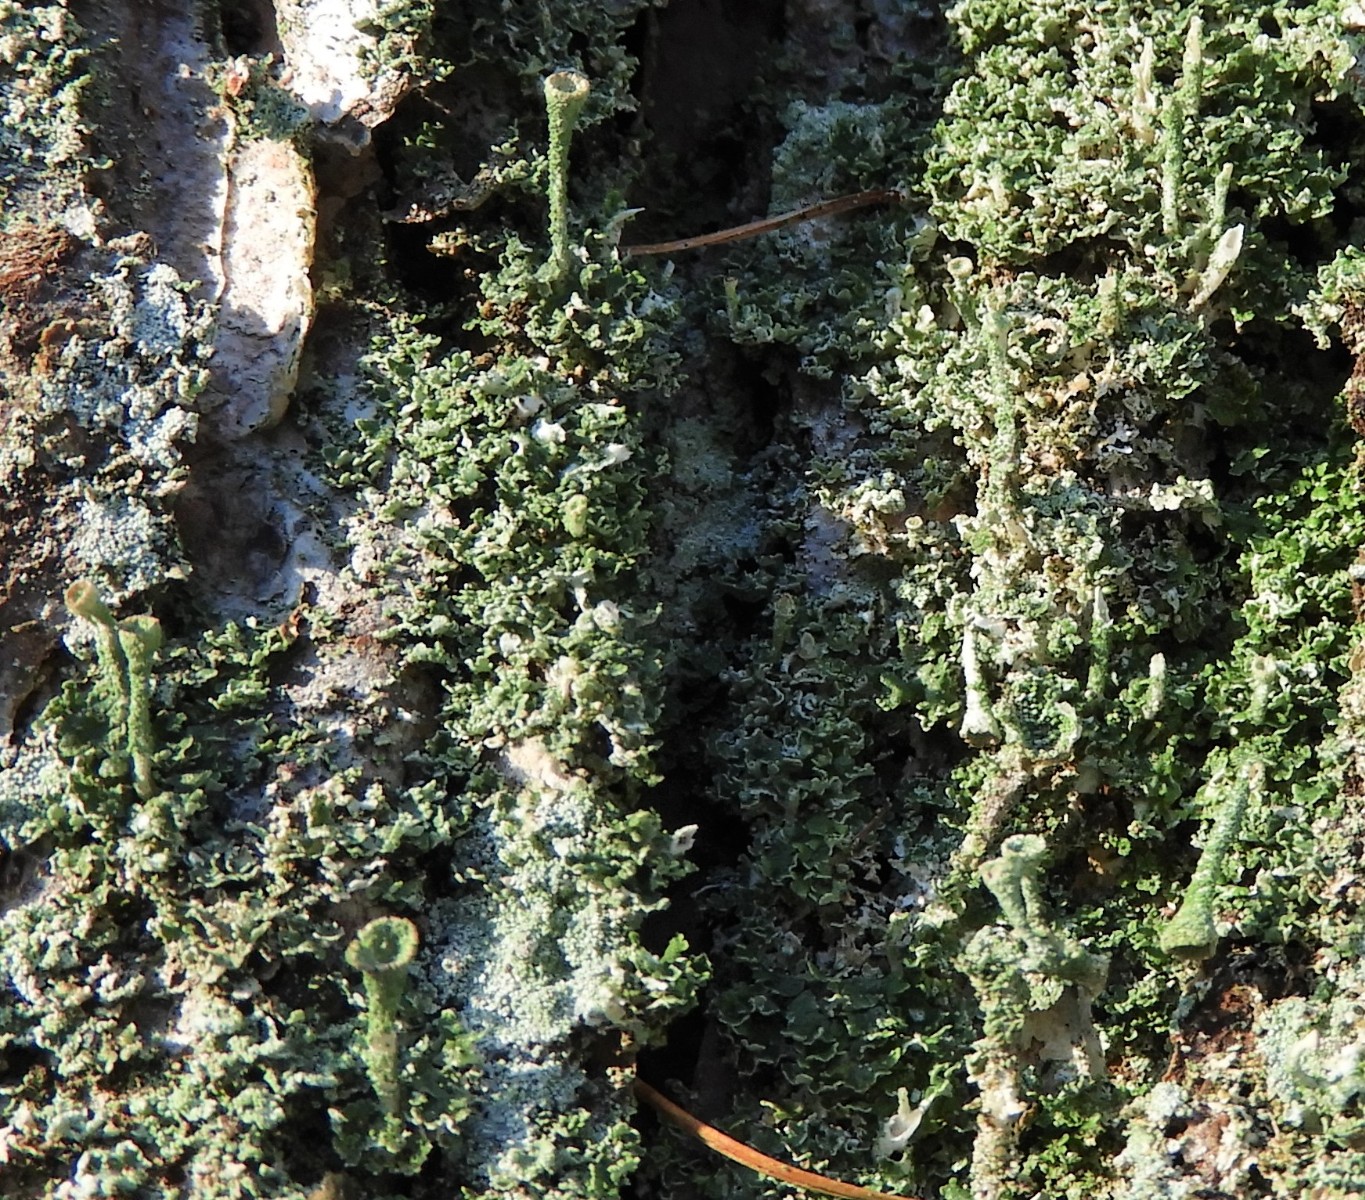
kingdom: Fungi
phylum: Ascomycota
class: Lecanoromycetes
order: Lecanorales
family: Cladoniaceae
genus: Cladonia
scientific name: Cladonia
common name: brungrøn bægerlav
